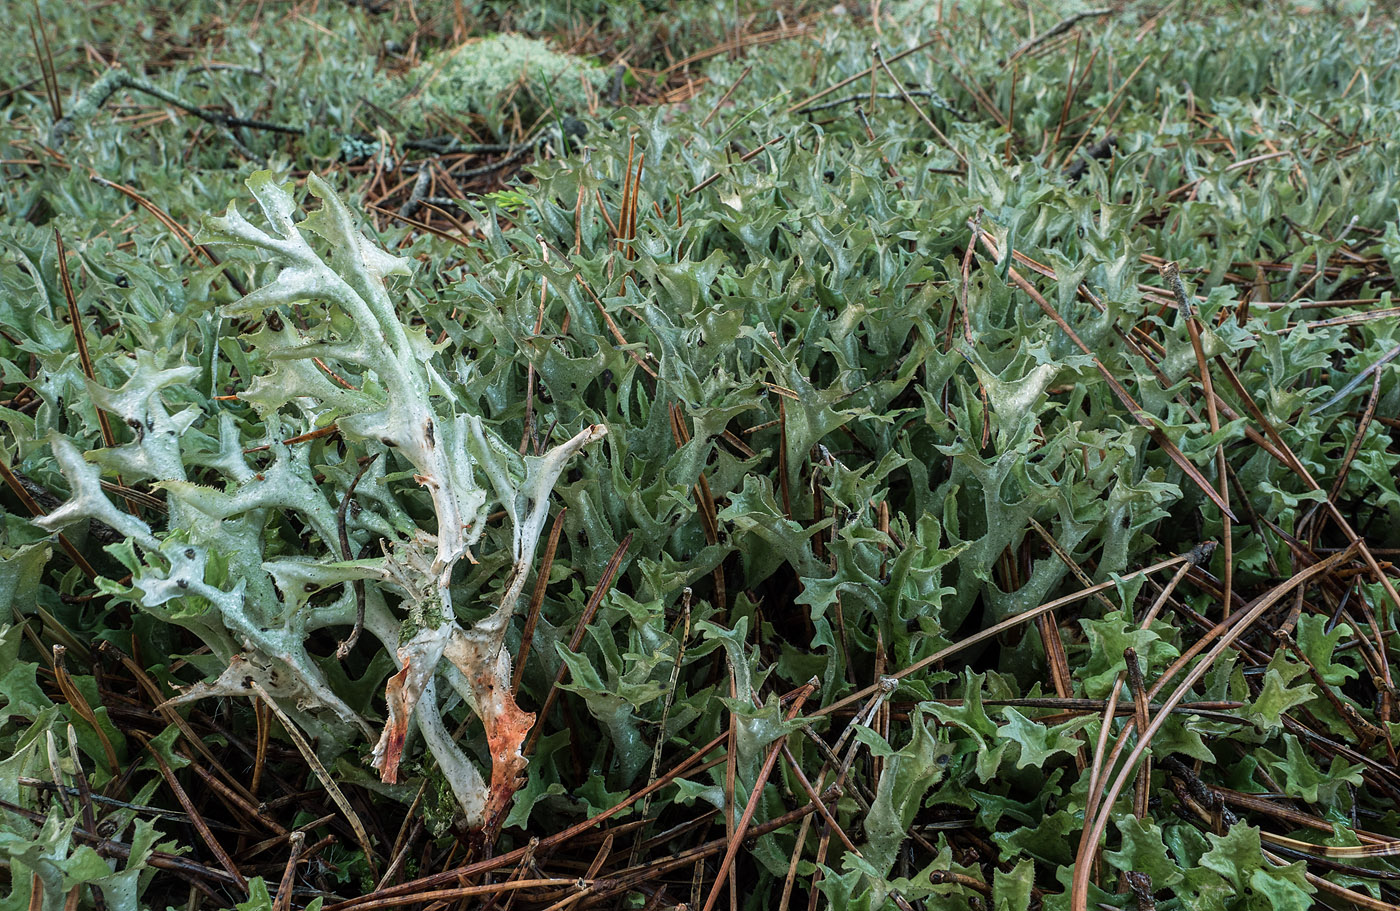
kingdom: Fungi
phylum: Ascomycota
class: Lecanoromycetes
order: Lecanorales
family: Parmeliaceae
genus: Cetraria
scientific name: Cetraria islandica
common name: islandsk kruslav
